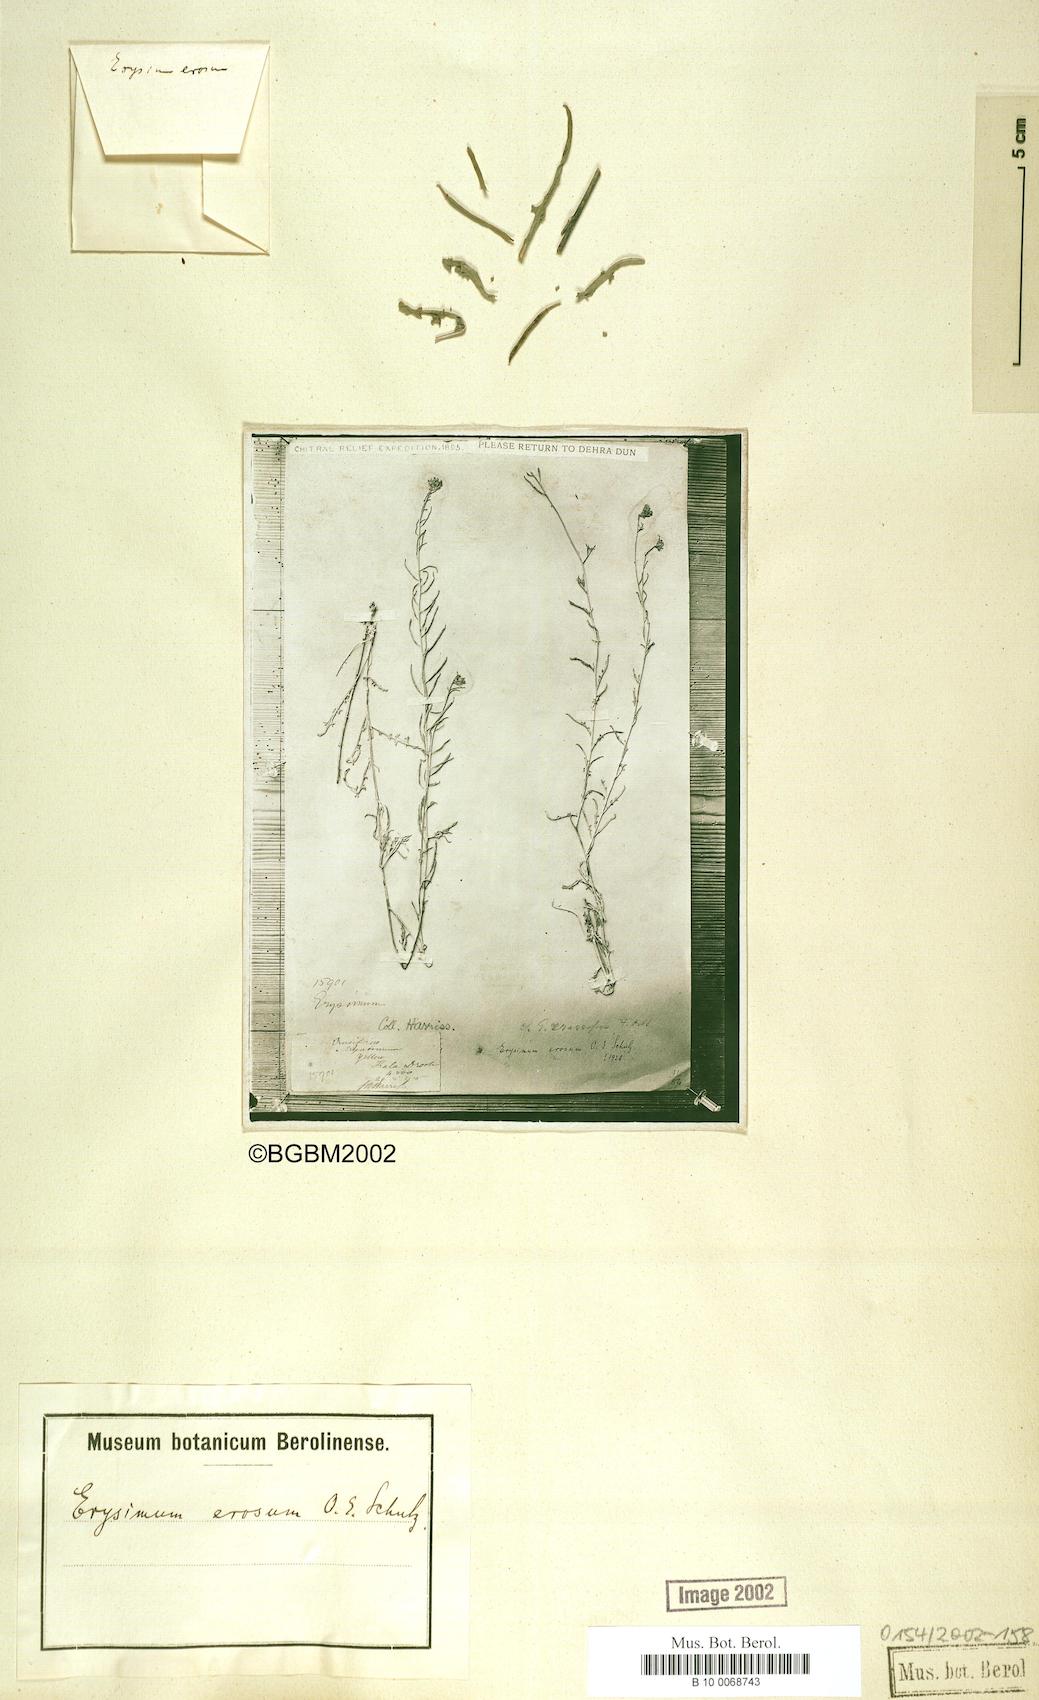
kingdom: Plantae
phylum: Tracheophyta
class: Magnoliopsida
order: Brassicales
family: Brassicaceae
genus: Erysimum
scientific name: Erysimum erosum
